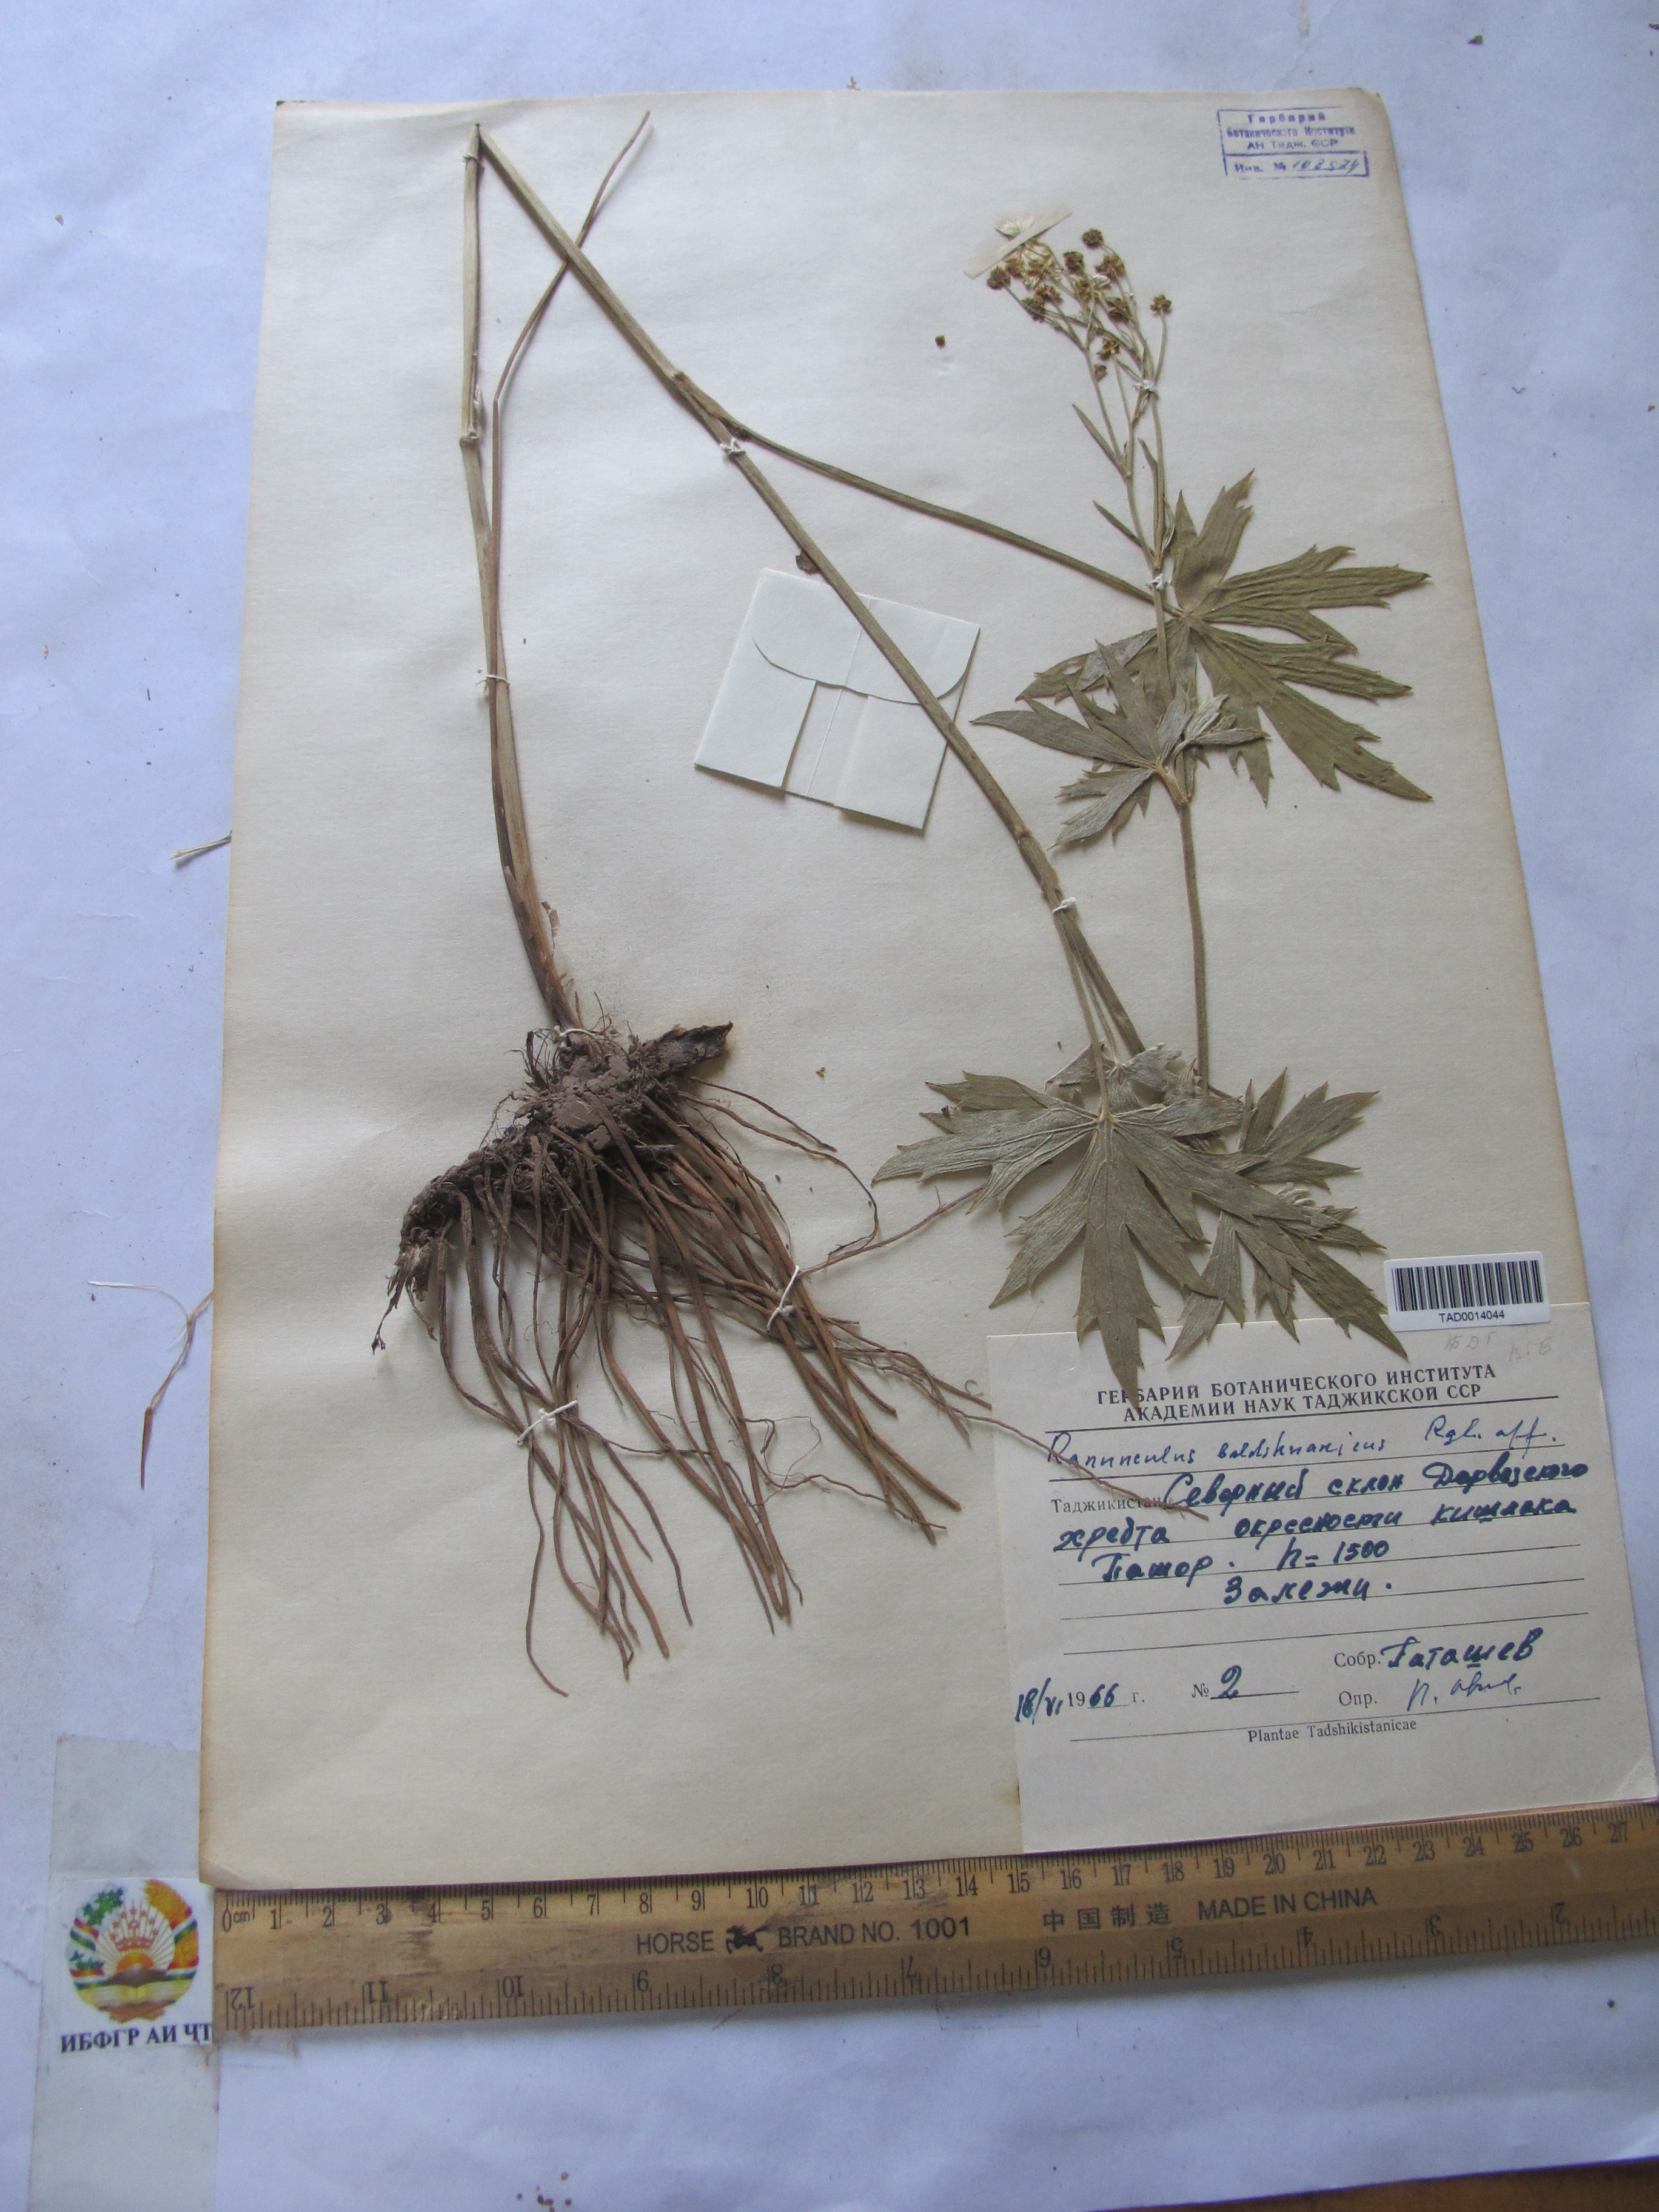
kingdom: Plantae
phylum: Tracheophyta
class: Magnoliopsida
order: Ranunculales
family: Ranunculaceae
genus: Ranunculus
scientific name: Ranunculus baldshuanicus
